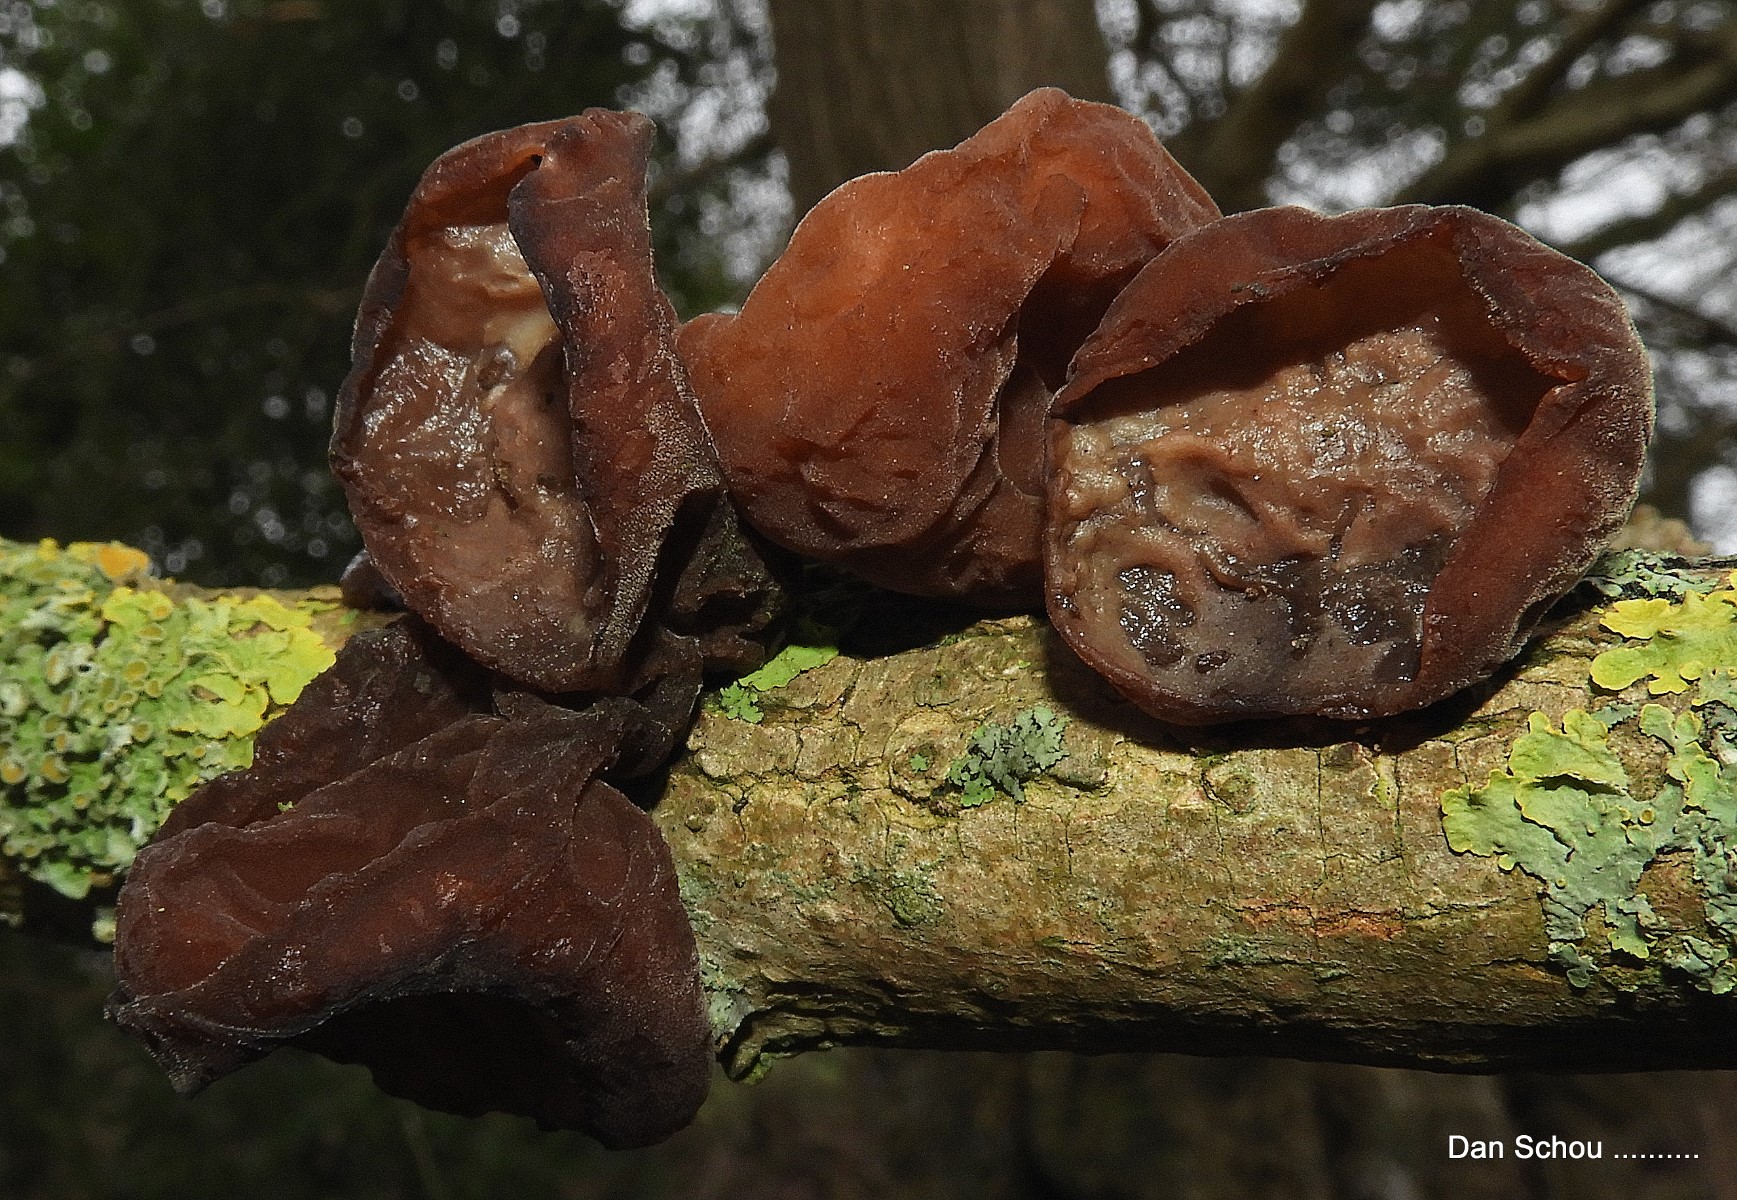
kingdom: Fungi
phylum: Basidiomycota
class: Agaricomycetes
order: Auriculariales
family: Auriculariaceae
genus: Auricularia
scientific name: Auricularia auricula-judae
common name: almindelig judasøre
